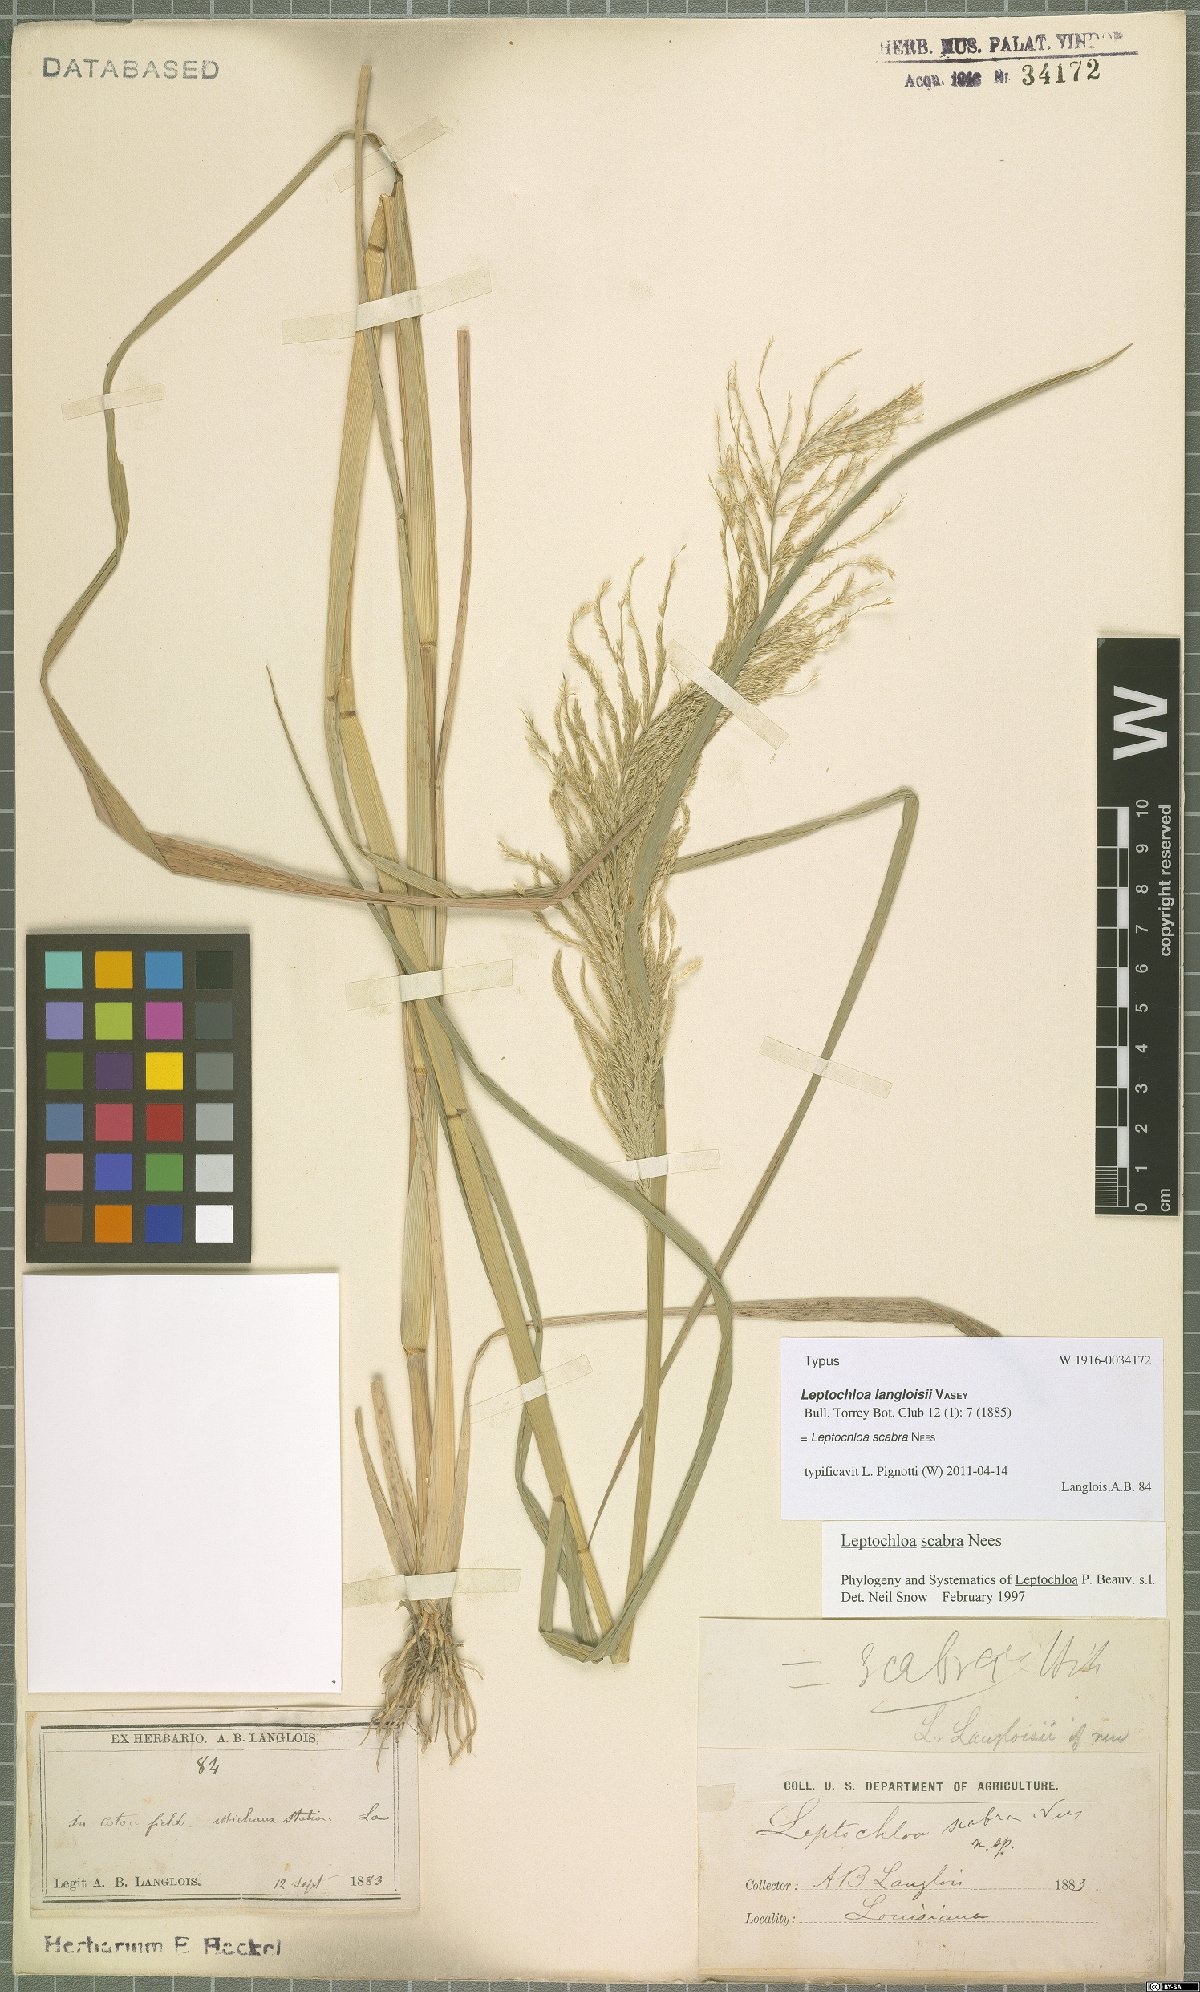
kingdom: Plantae
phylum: Tracheophyta
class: Liliopsida
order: Poales
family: Poaceae
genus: Leptochloa
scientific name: Leptochloa scabra
